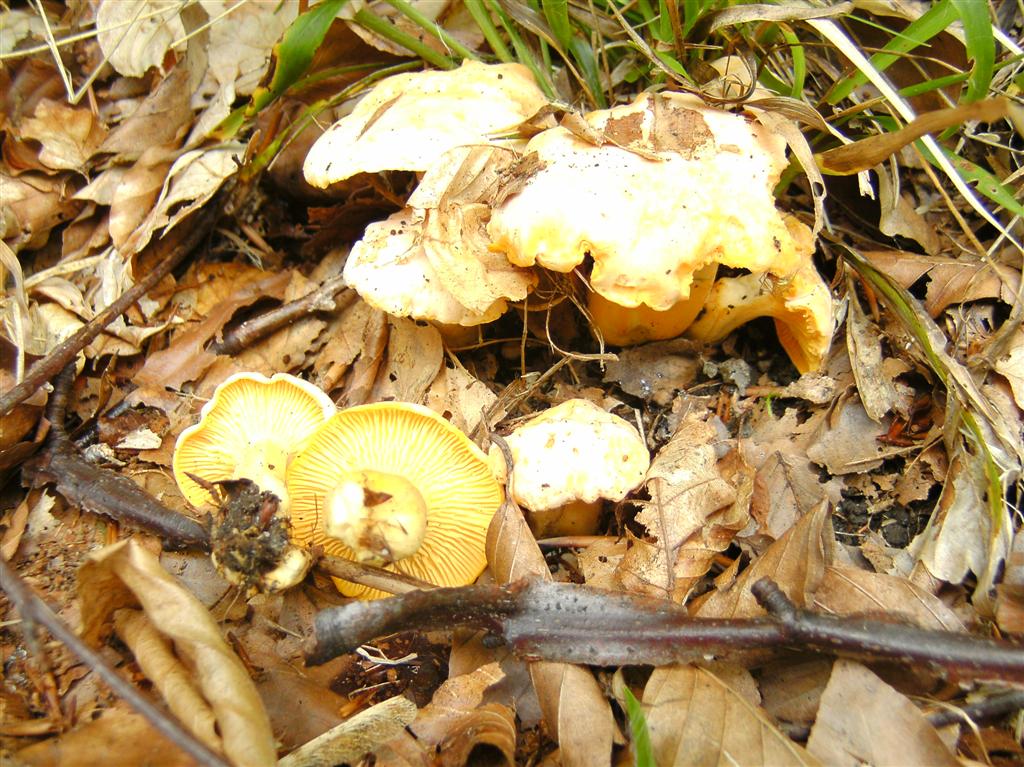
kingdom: Fungi
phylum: Basidiomycota
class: Agaricomycetes
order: Cantharellales
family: Hydnaceae
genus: Cantharellus
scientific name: Cantharellus pallens
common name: bleg kantarel
